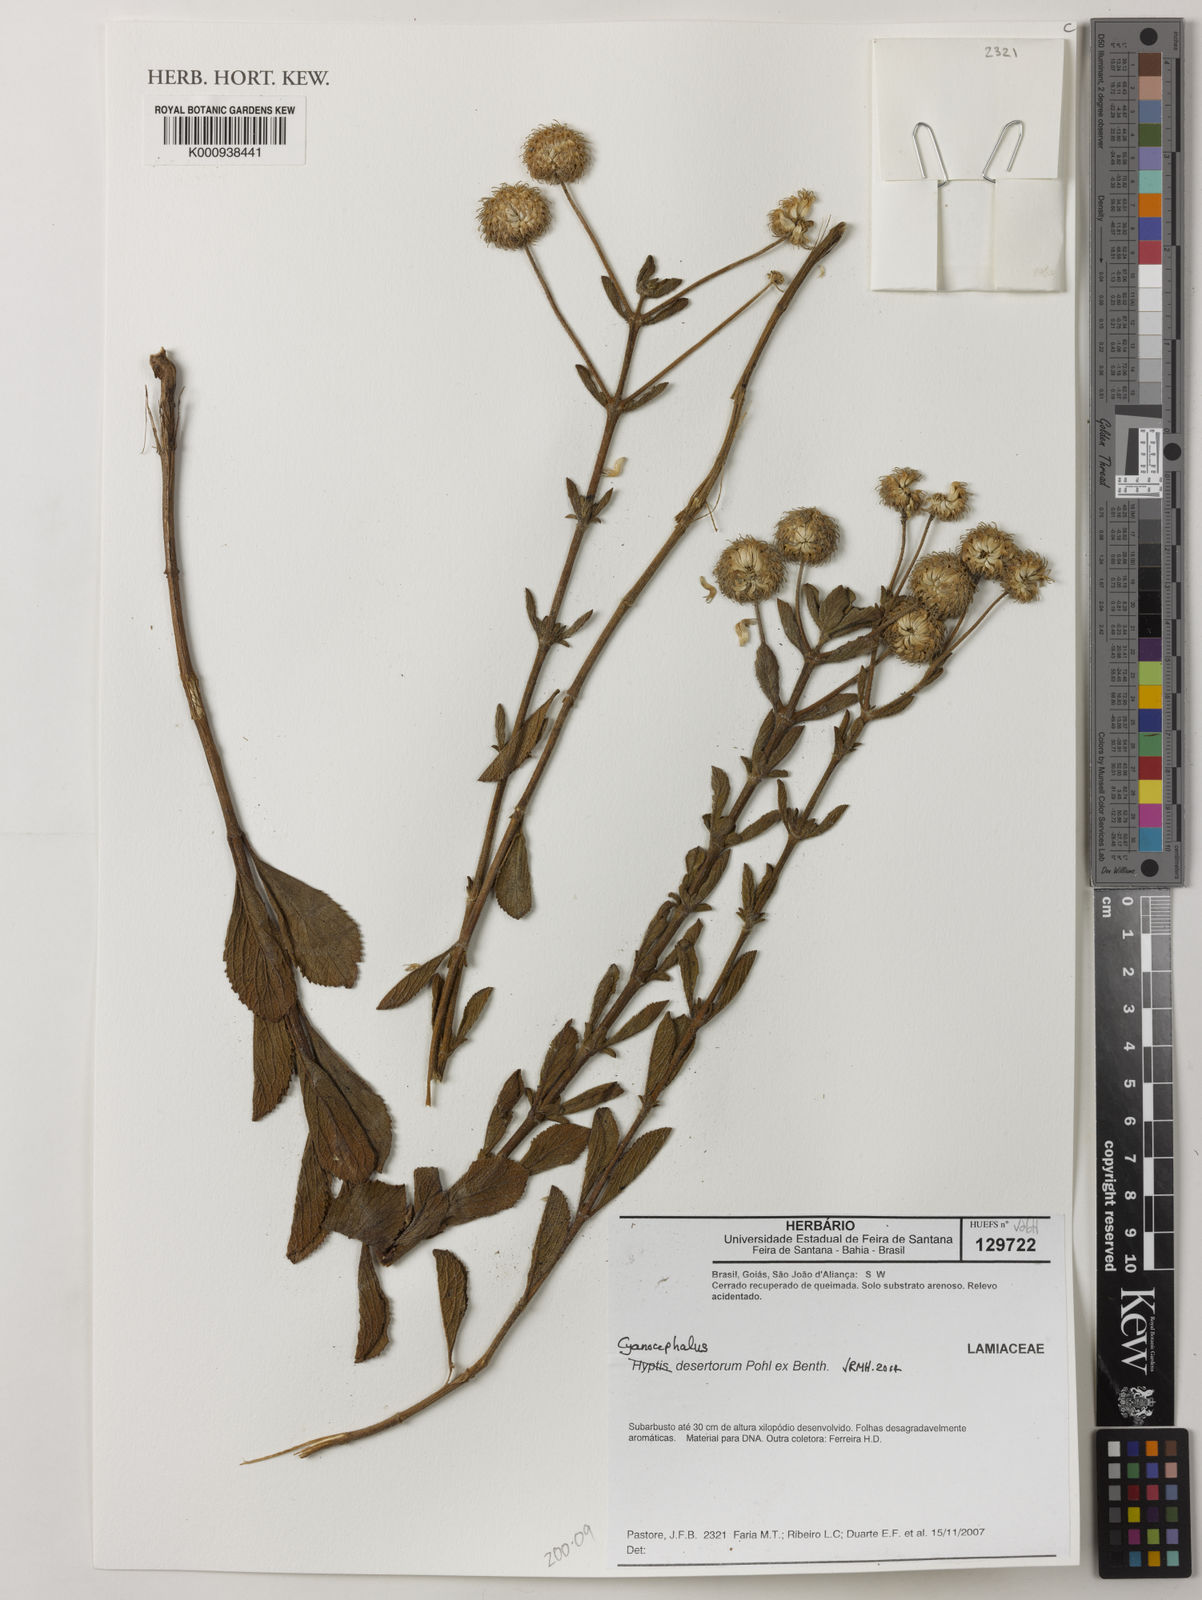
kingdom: Plantae
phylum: Tracheophyta
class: Magnoliopsida
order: Lamiales
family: Lamiaceae
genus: Cyanocephalus
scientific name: Cyanocephalus desertorum
